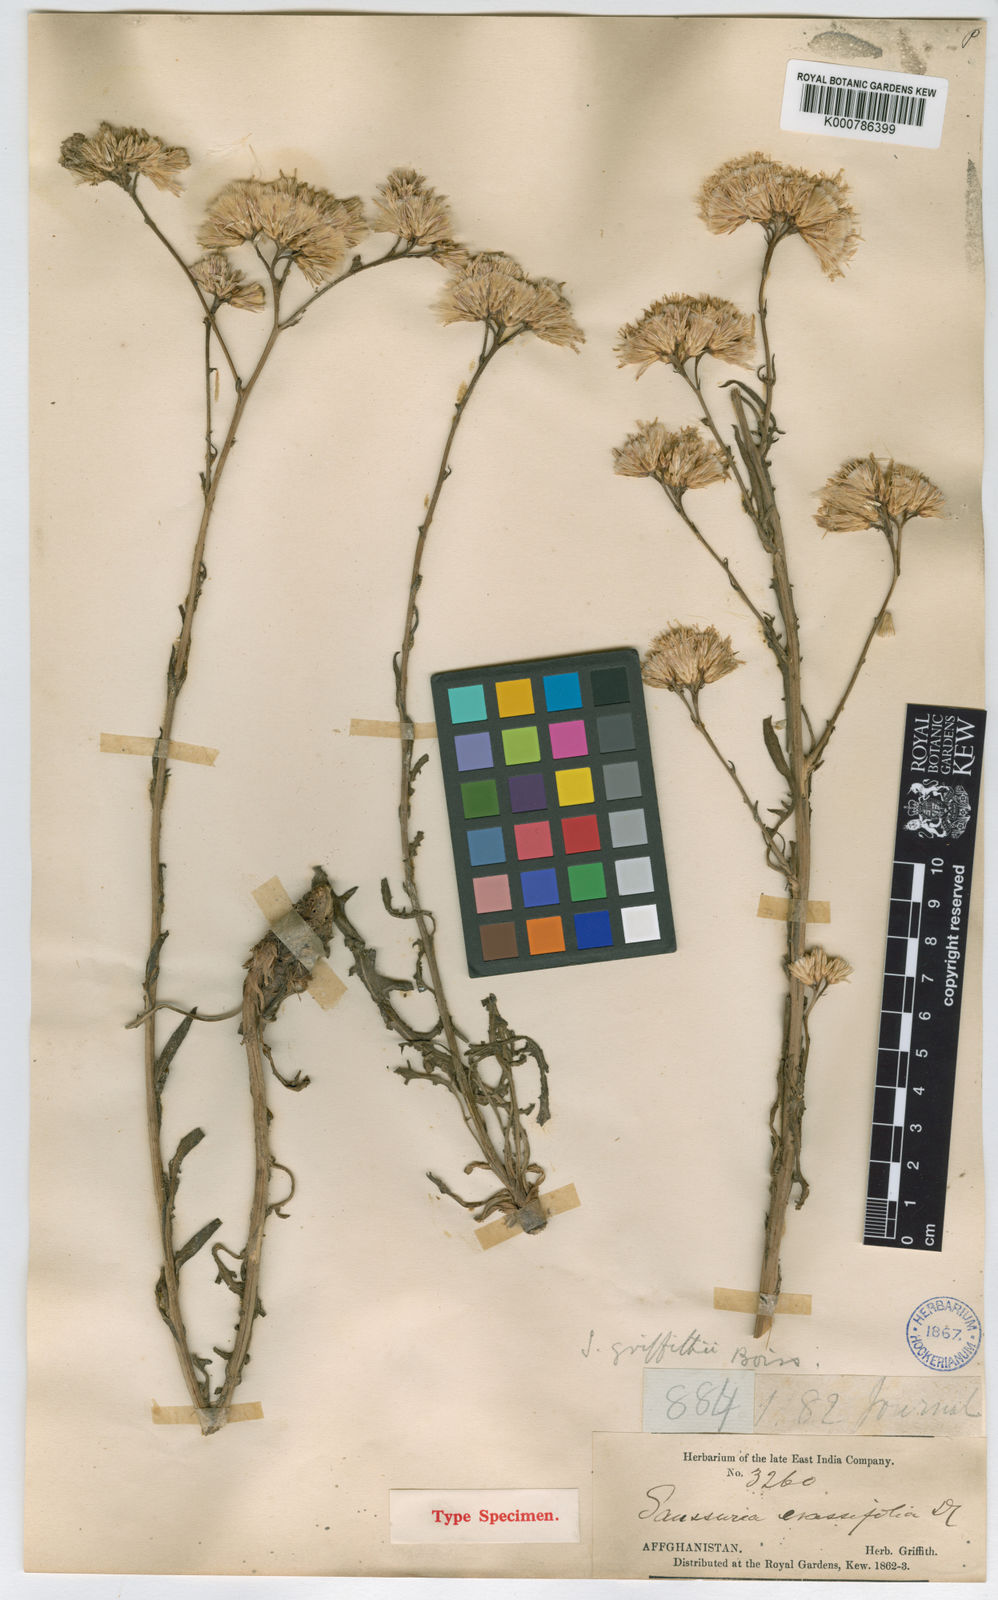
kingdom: Plantae
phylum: Tracheophyta
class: Magnoliopsida
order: Asterales
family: Asteraceae
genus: Saussurea
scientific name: Saussurea griffithii
